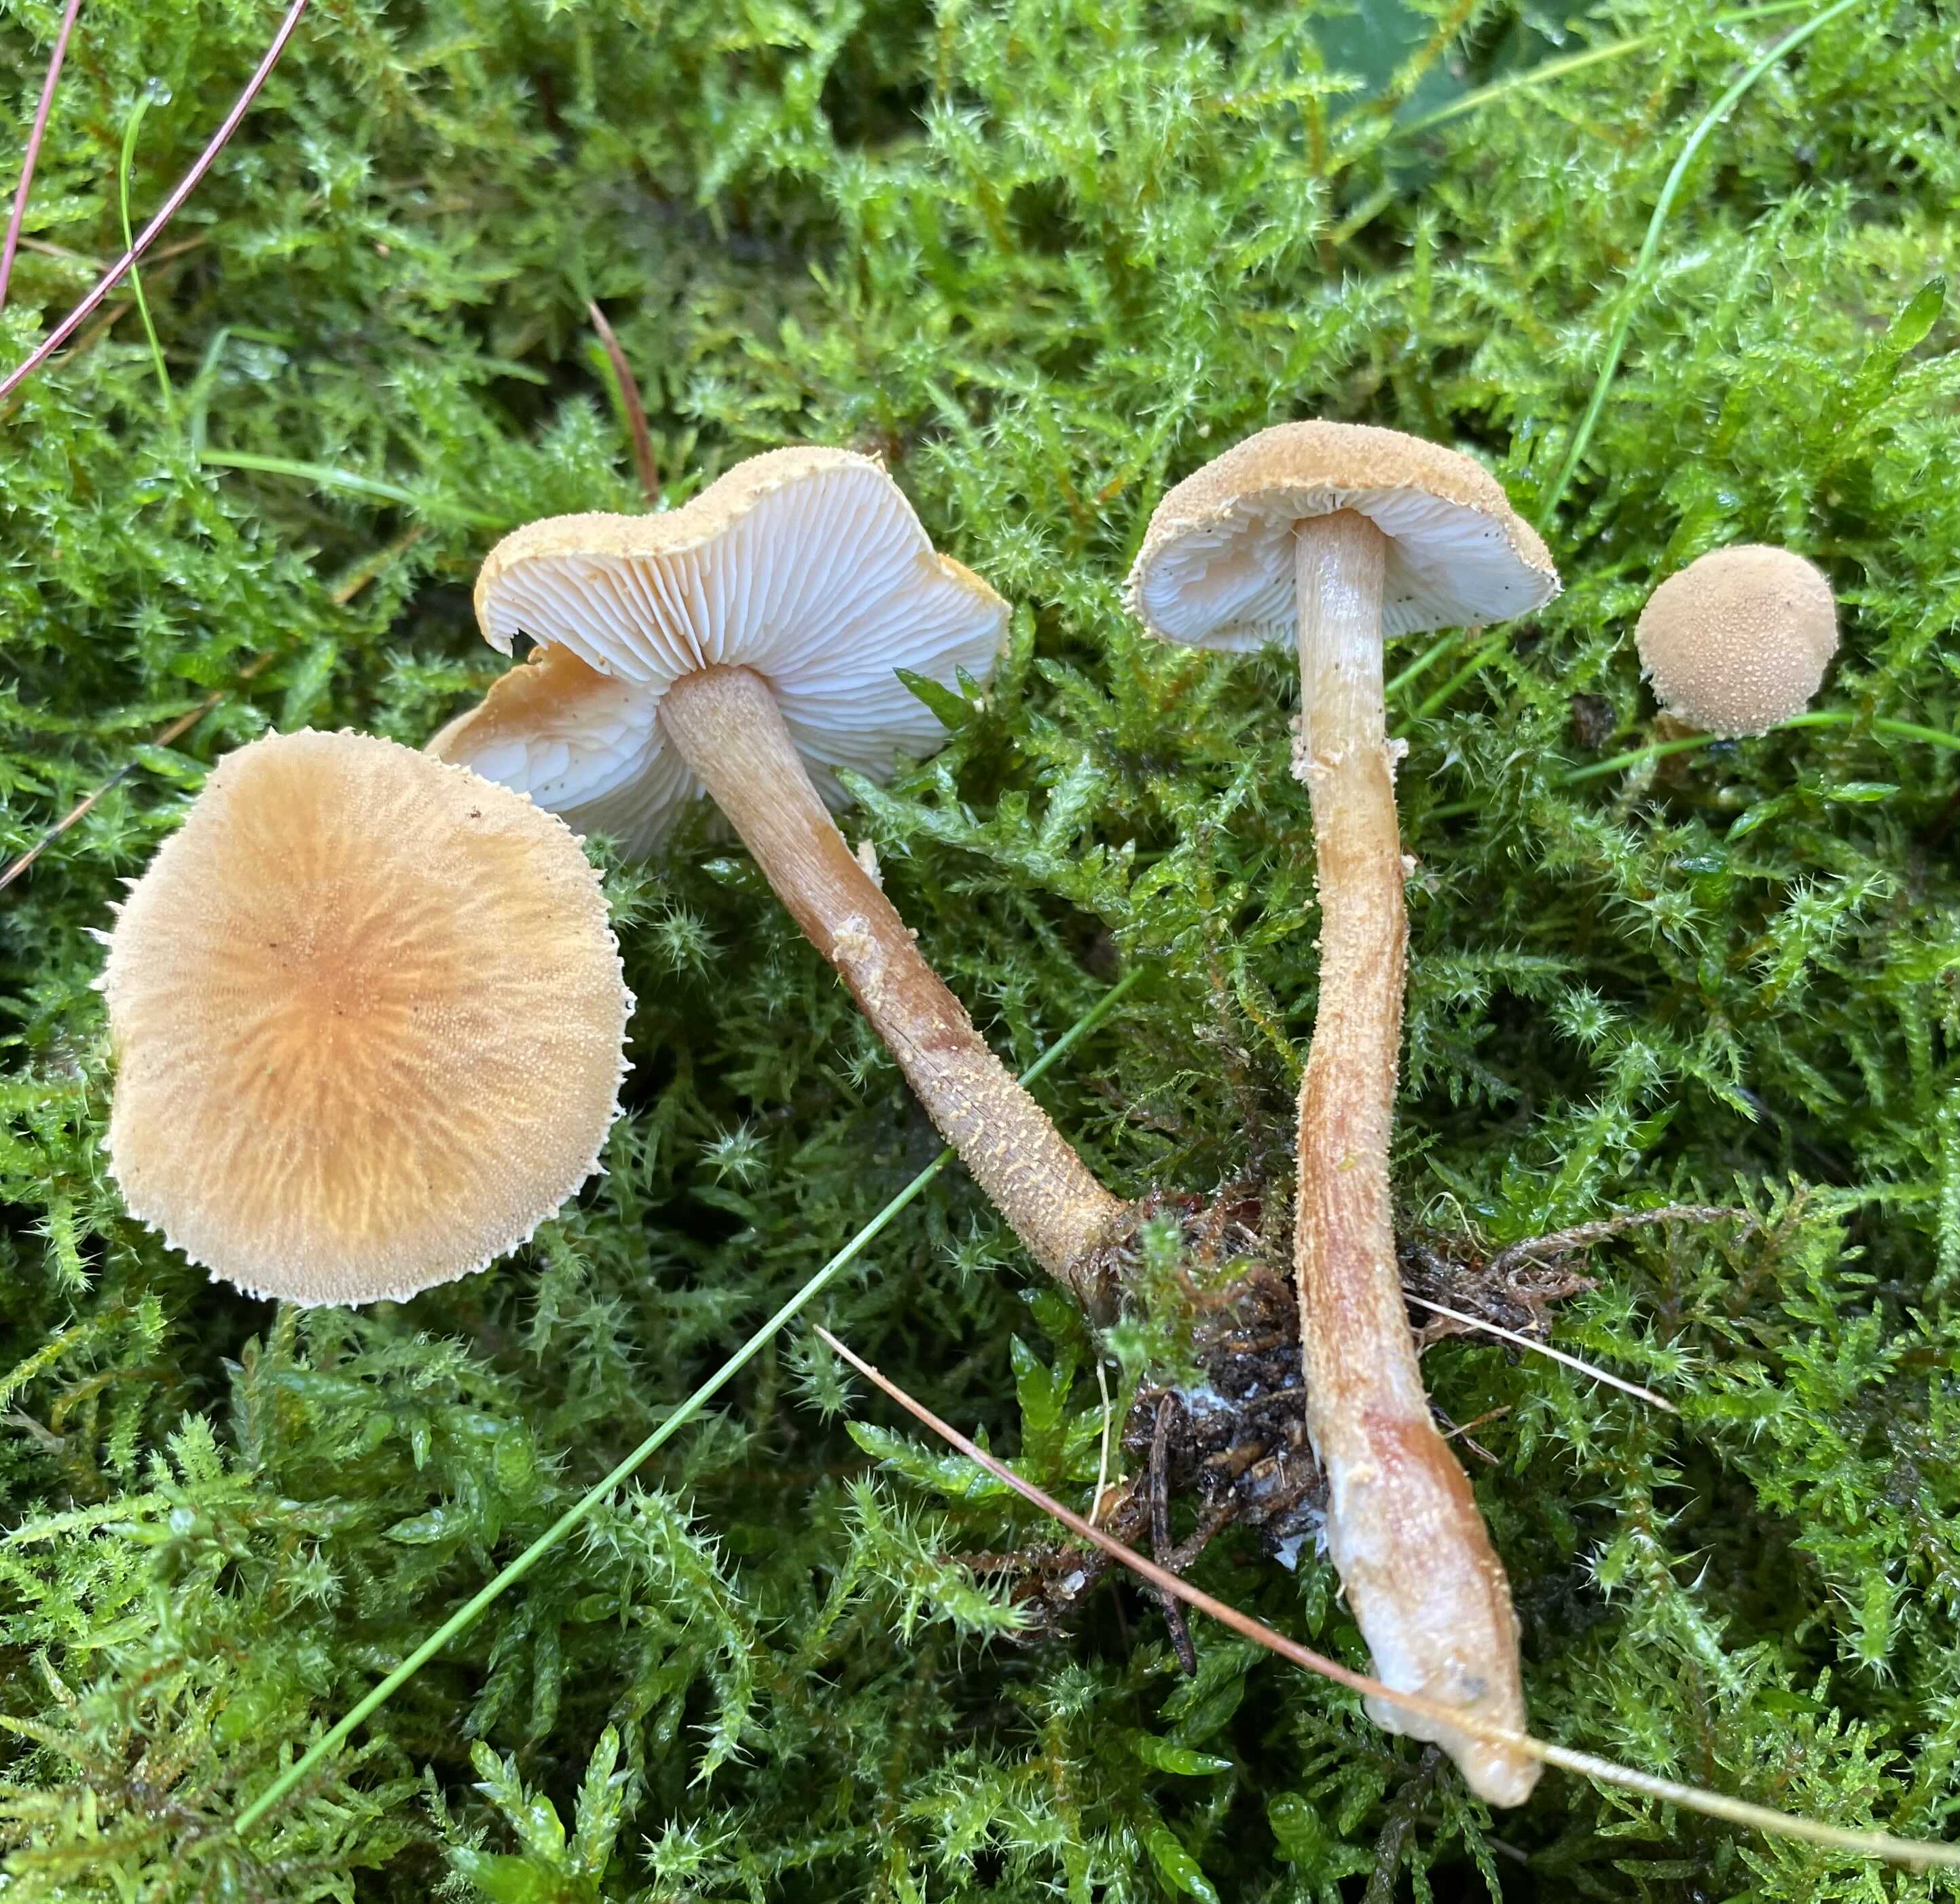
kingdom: Fungi
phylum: Basidiomycota
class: Agaricomycetes
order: Agaricales
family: Tricholomataceae
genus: Cystoderma
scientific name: Cystoderma amianthinum
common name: okkergul grynhat
